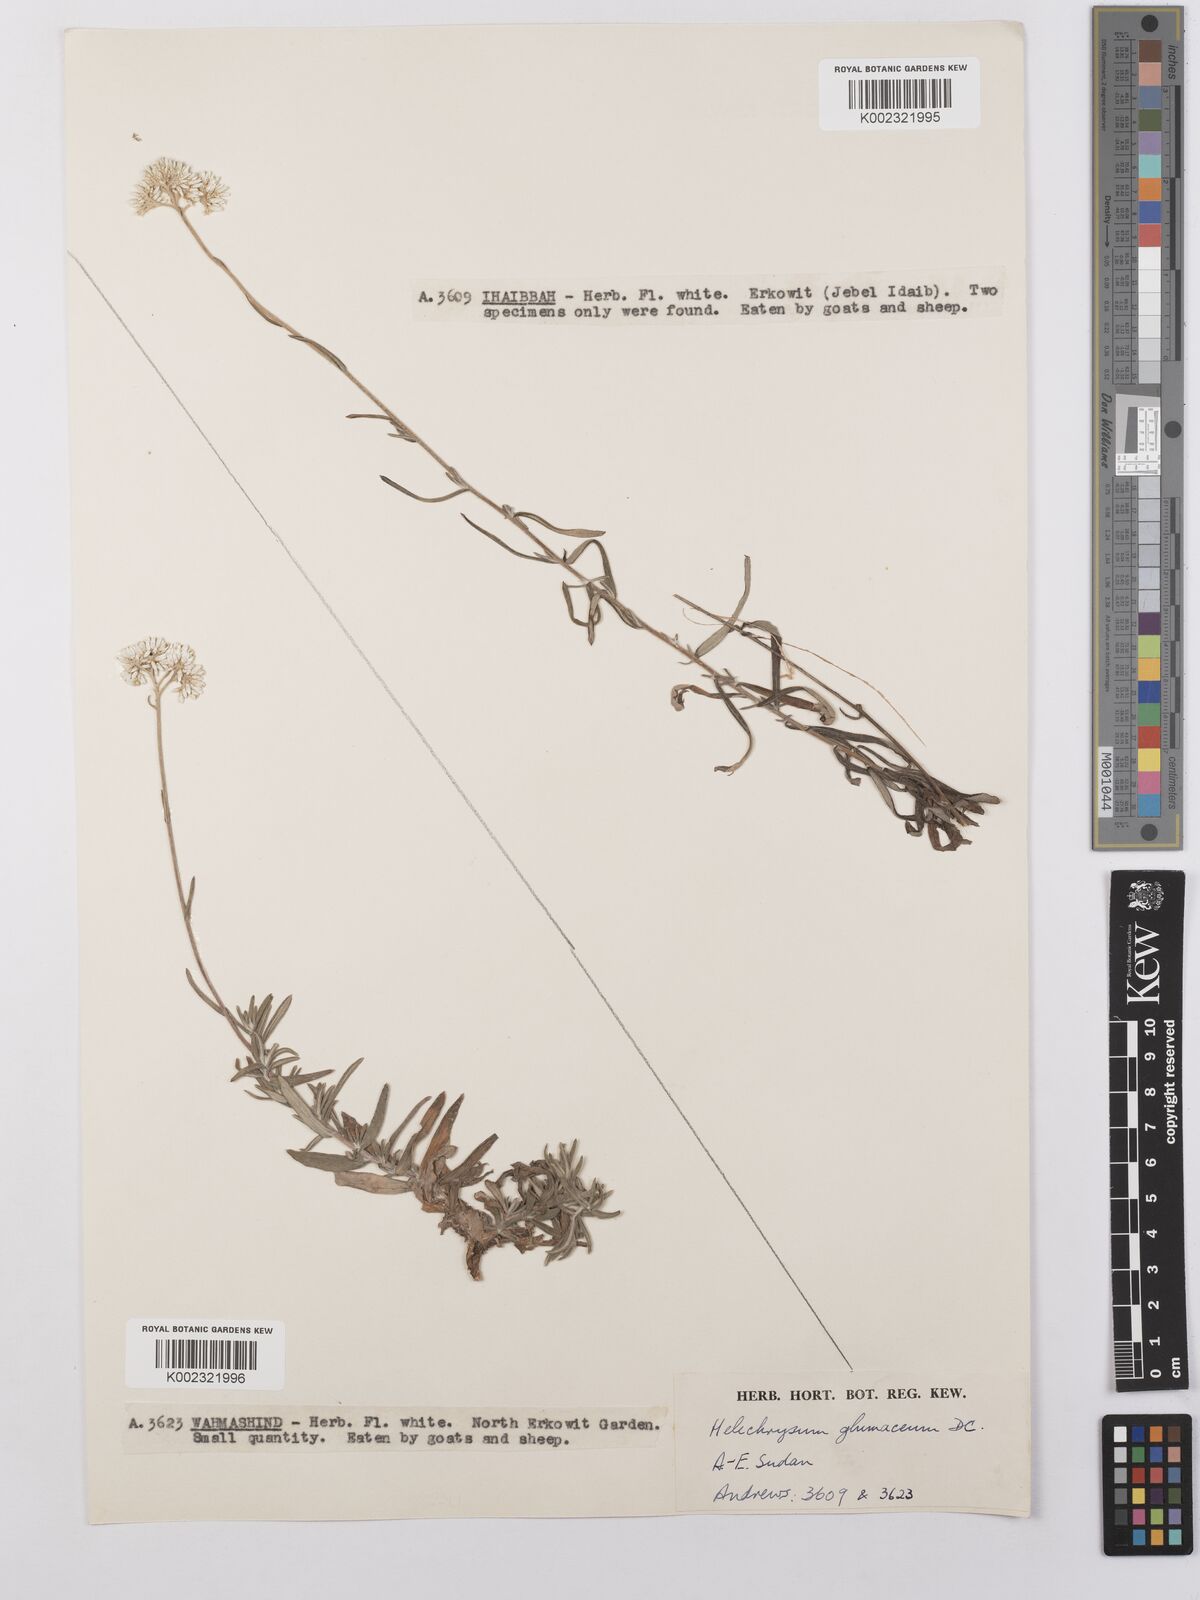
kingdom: Plantae
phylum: Tracheophyta
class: Magnoliopsida
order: Asterales
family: Asteraceae
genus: Helichrysum
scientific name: Helichrysum glumaceum
